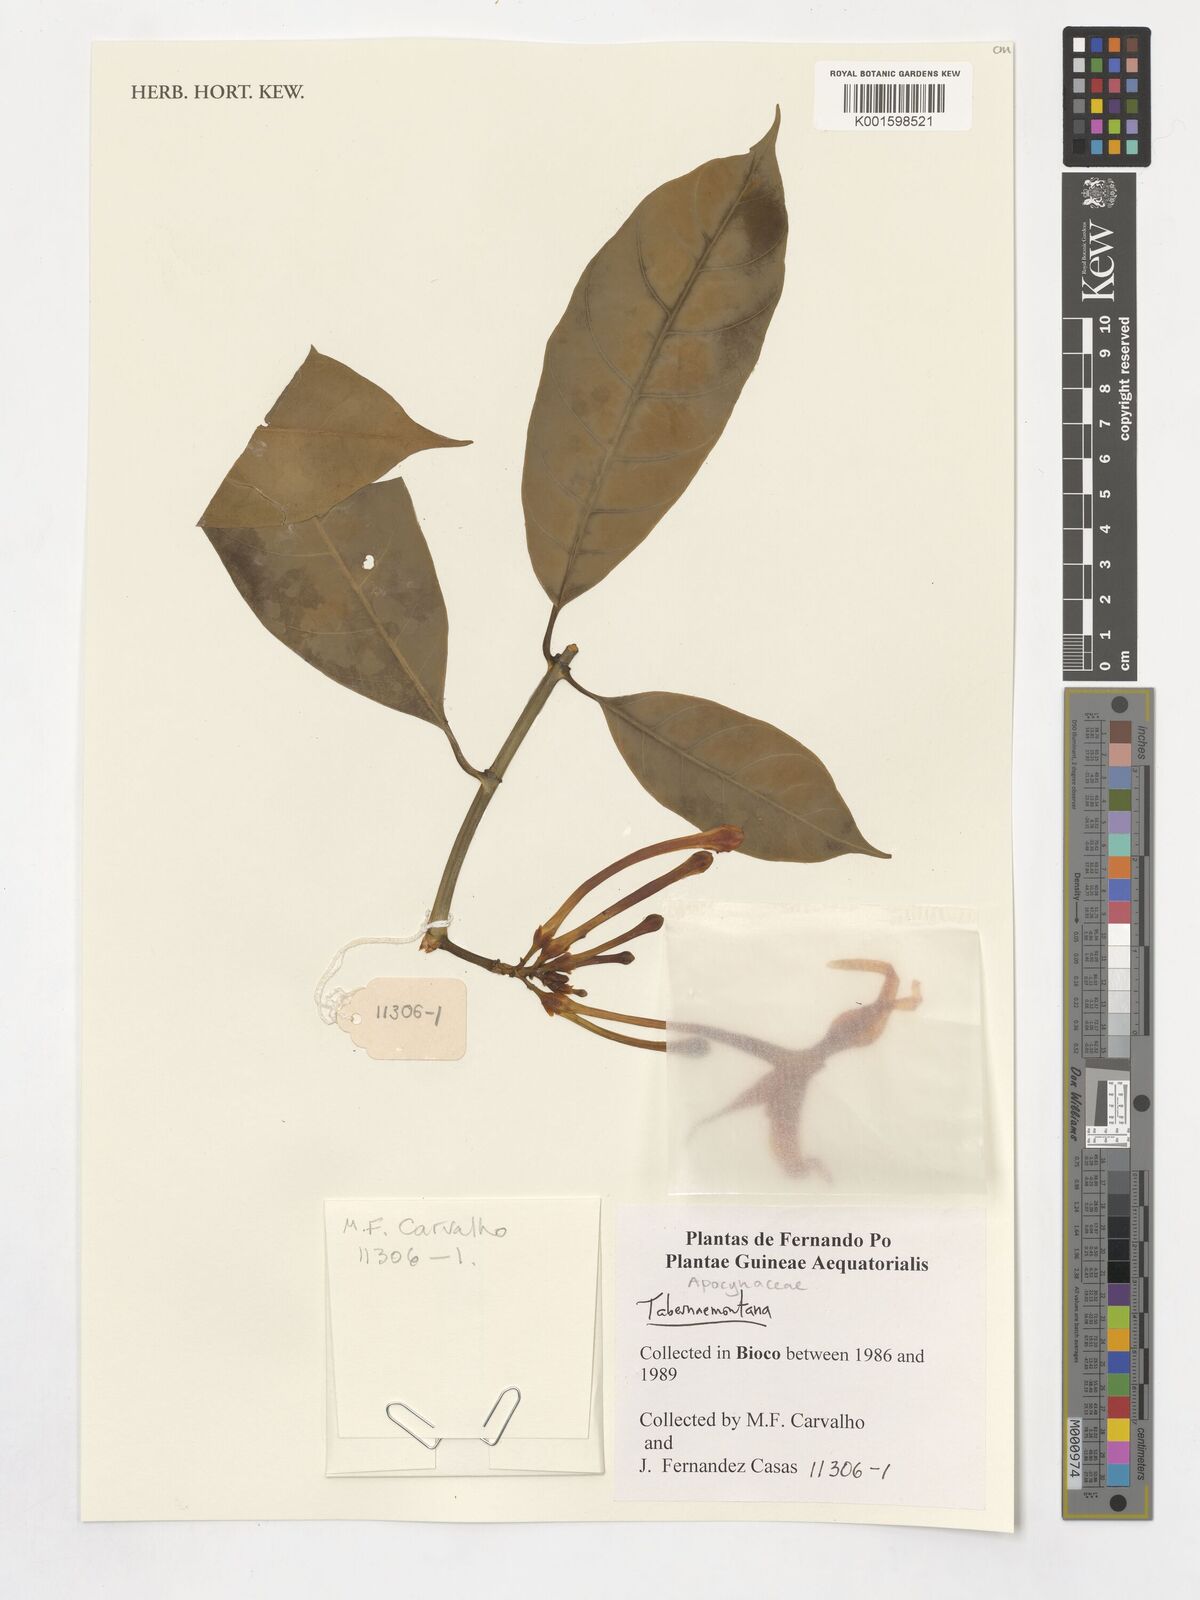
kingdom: Plantae
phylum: Tracheophyta
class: Magnoliopsida
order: Gentianales
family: Apocynaceae
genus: Tabernaemontana
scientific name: Tabernaemontana
